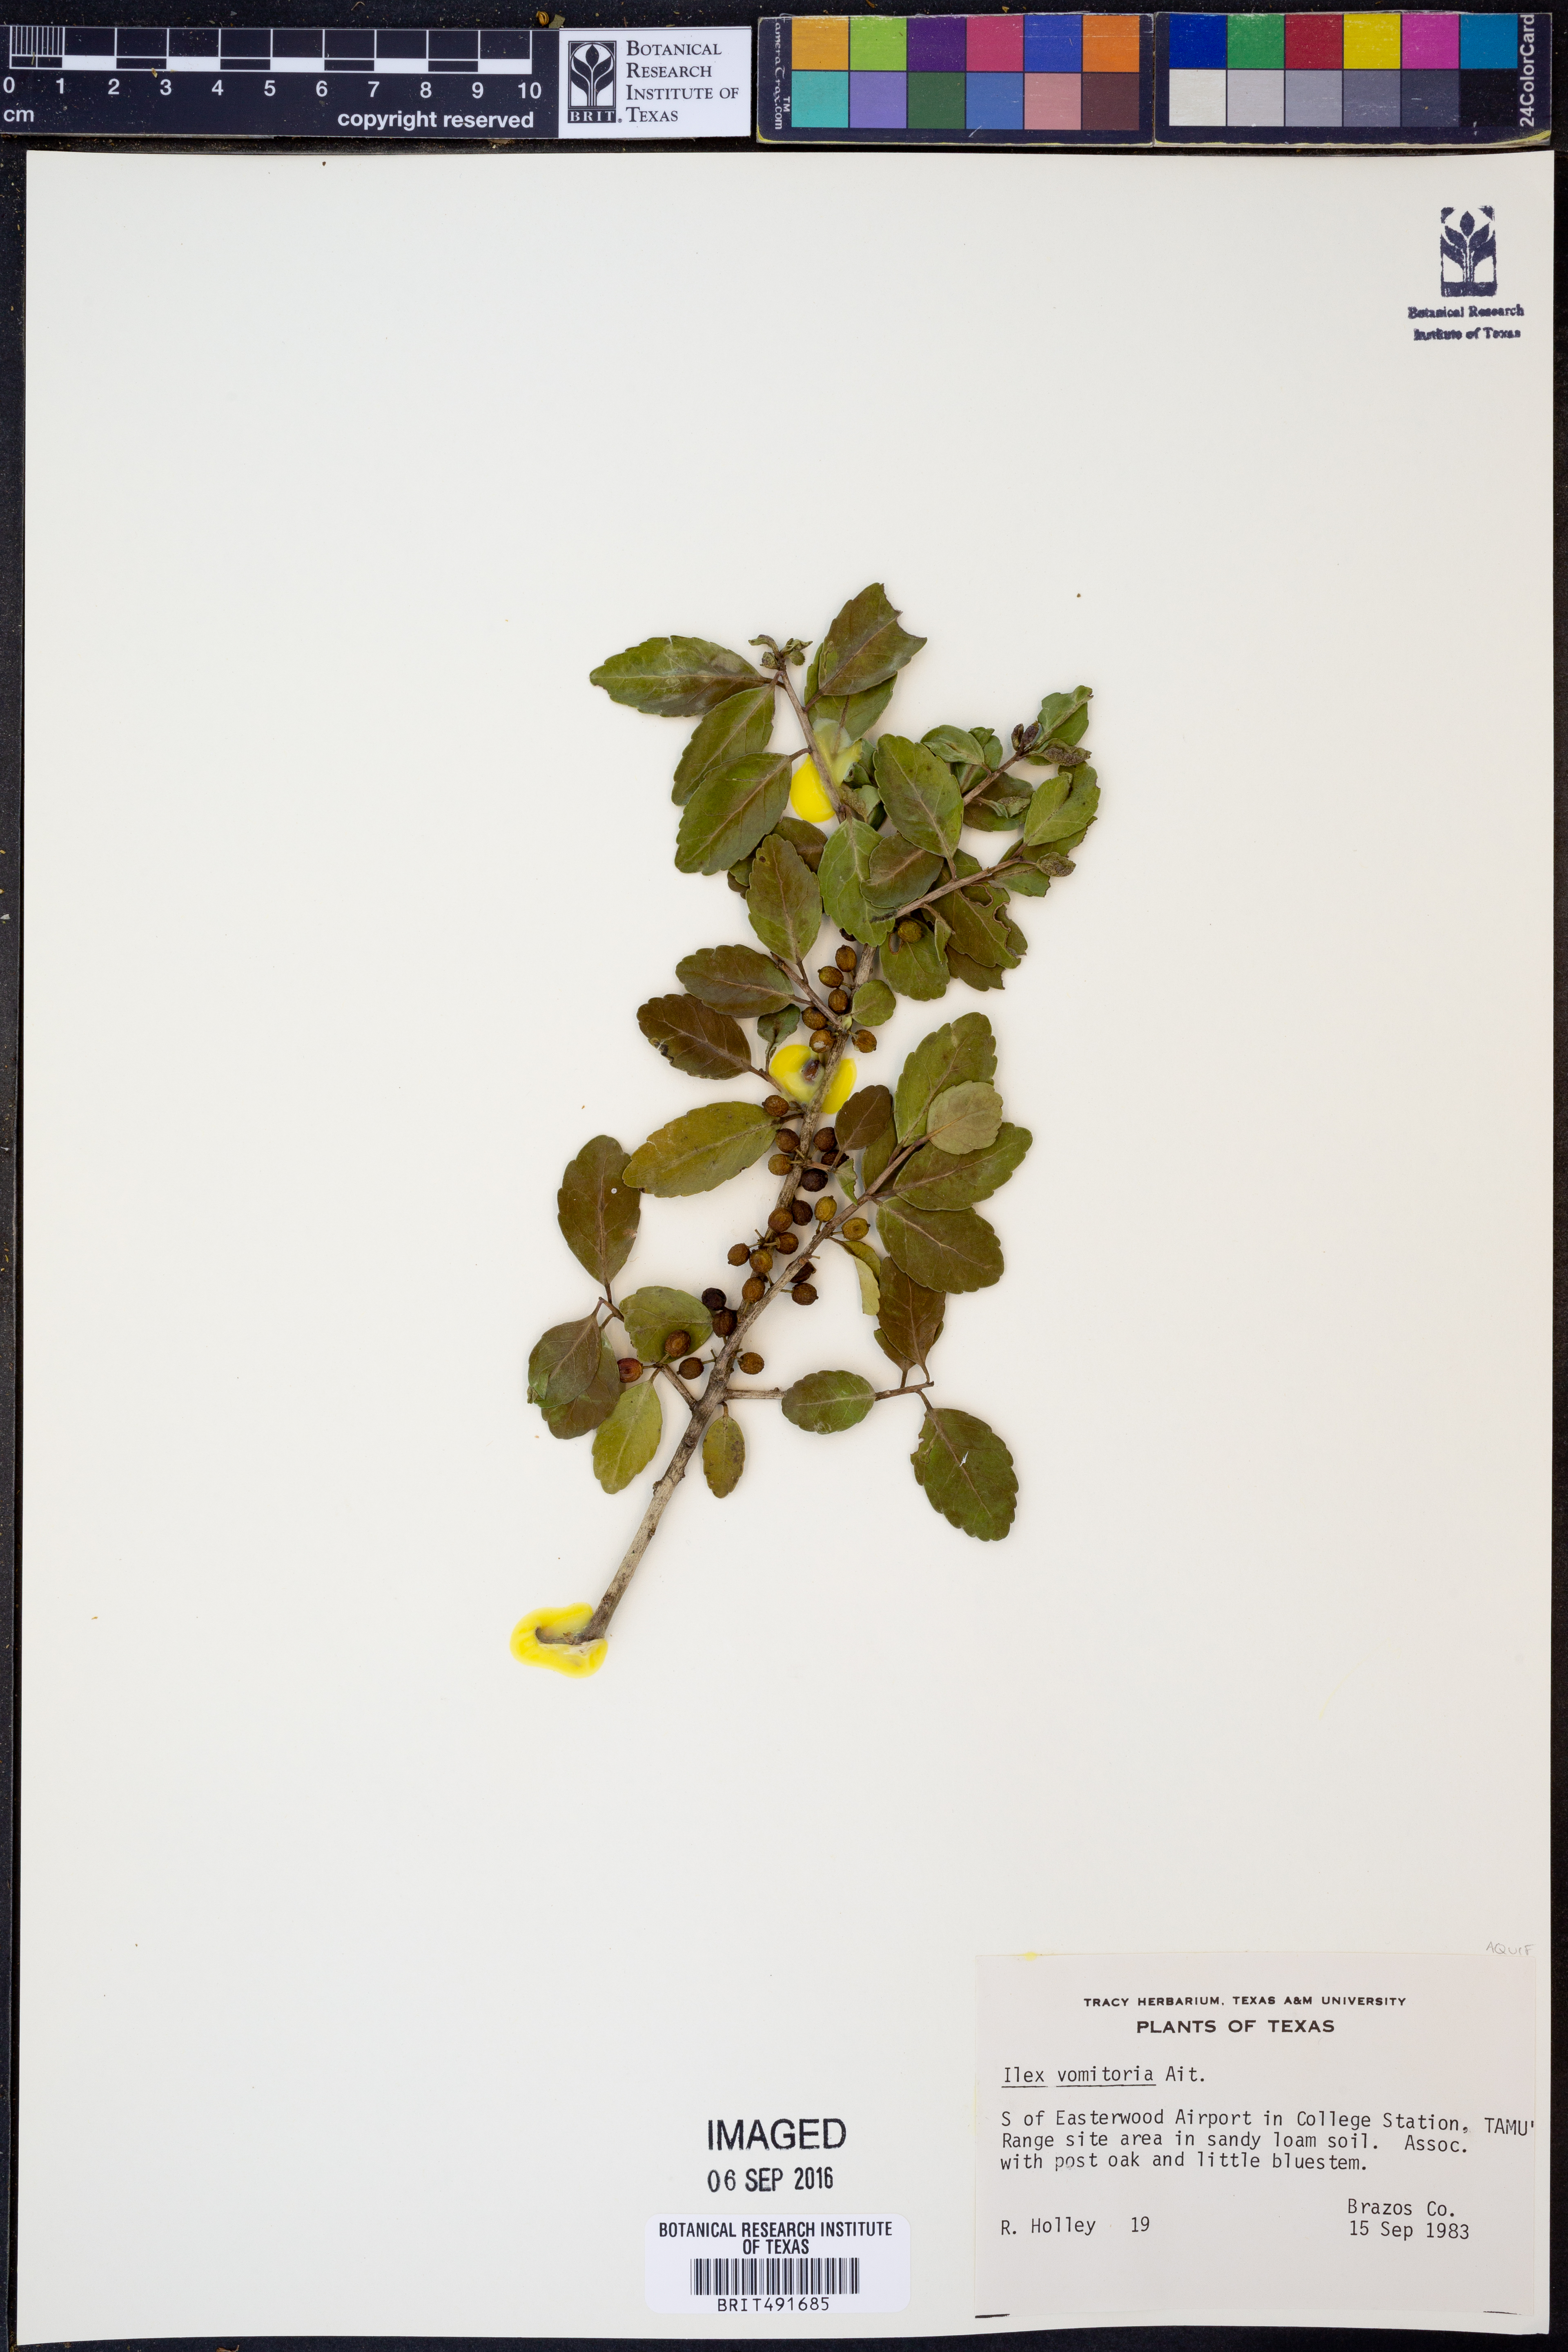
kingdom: Plantae
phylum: Tracheophyta
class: Magnoliopsida
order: Aquifoliales
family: Aquifoliaceae
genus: Ilex
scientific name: Ilex vomitoria
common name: Yaupon holly
